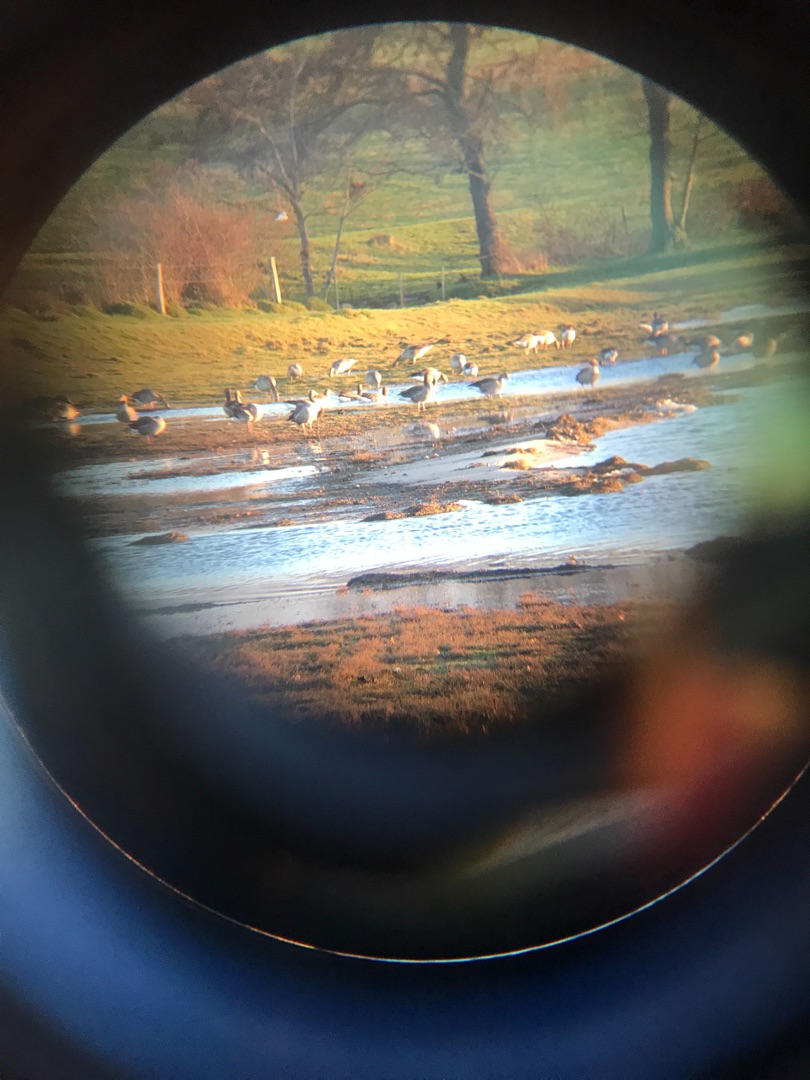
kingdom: Animalia
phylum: Chordata
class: Aves
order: Anseriformes
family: Anatidae
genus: Branta
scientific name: Branta leucopsis
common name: Bramgås
